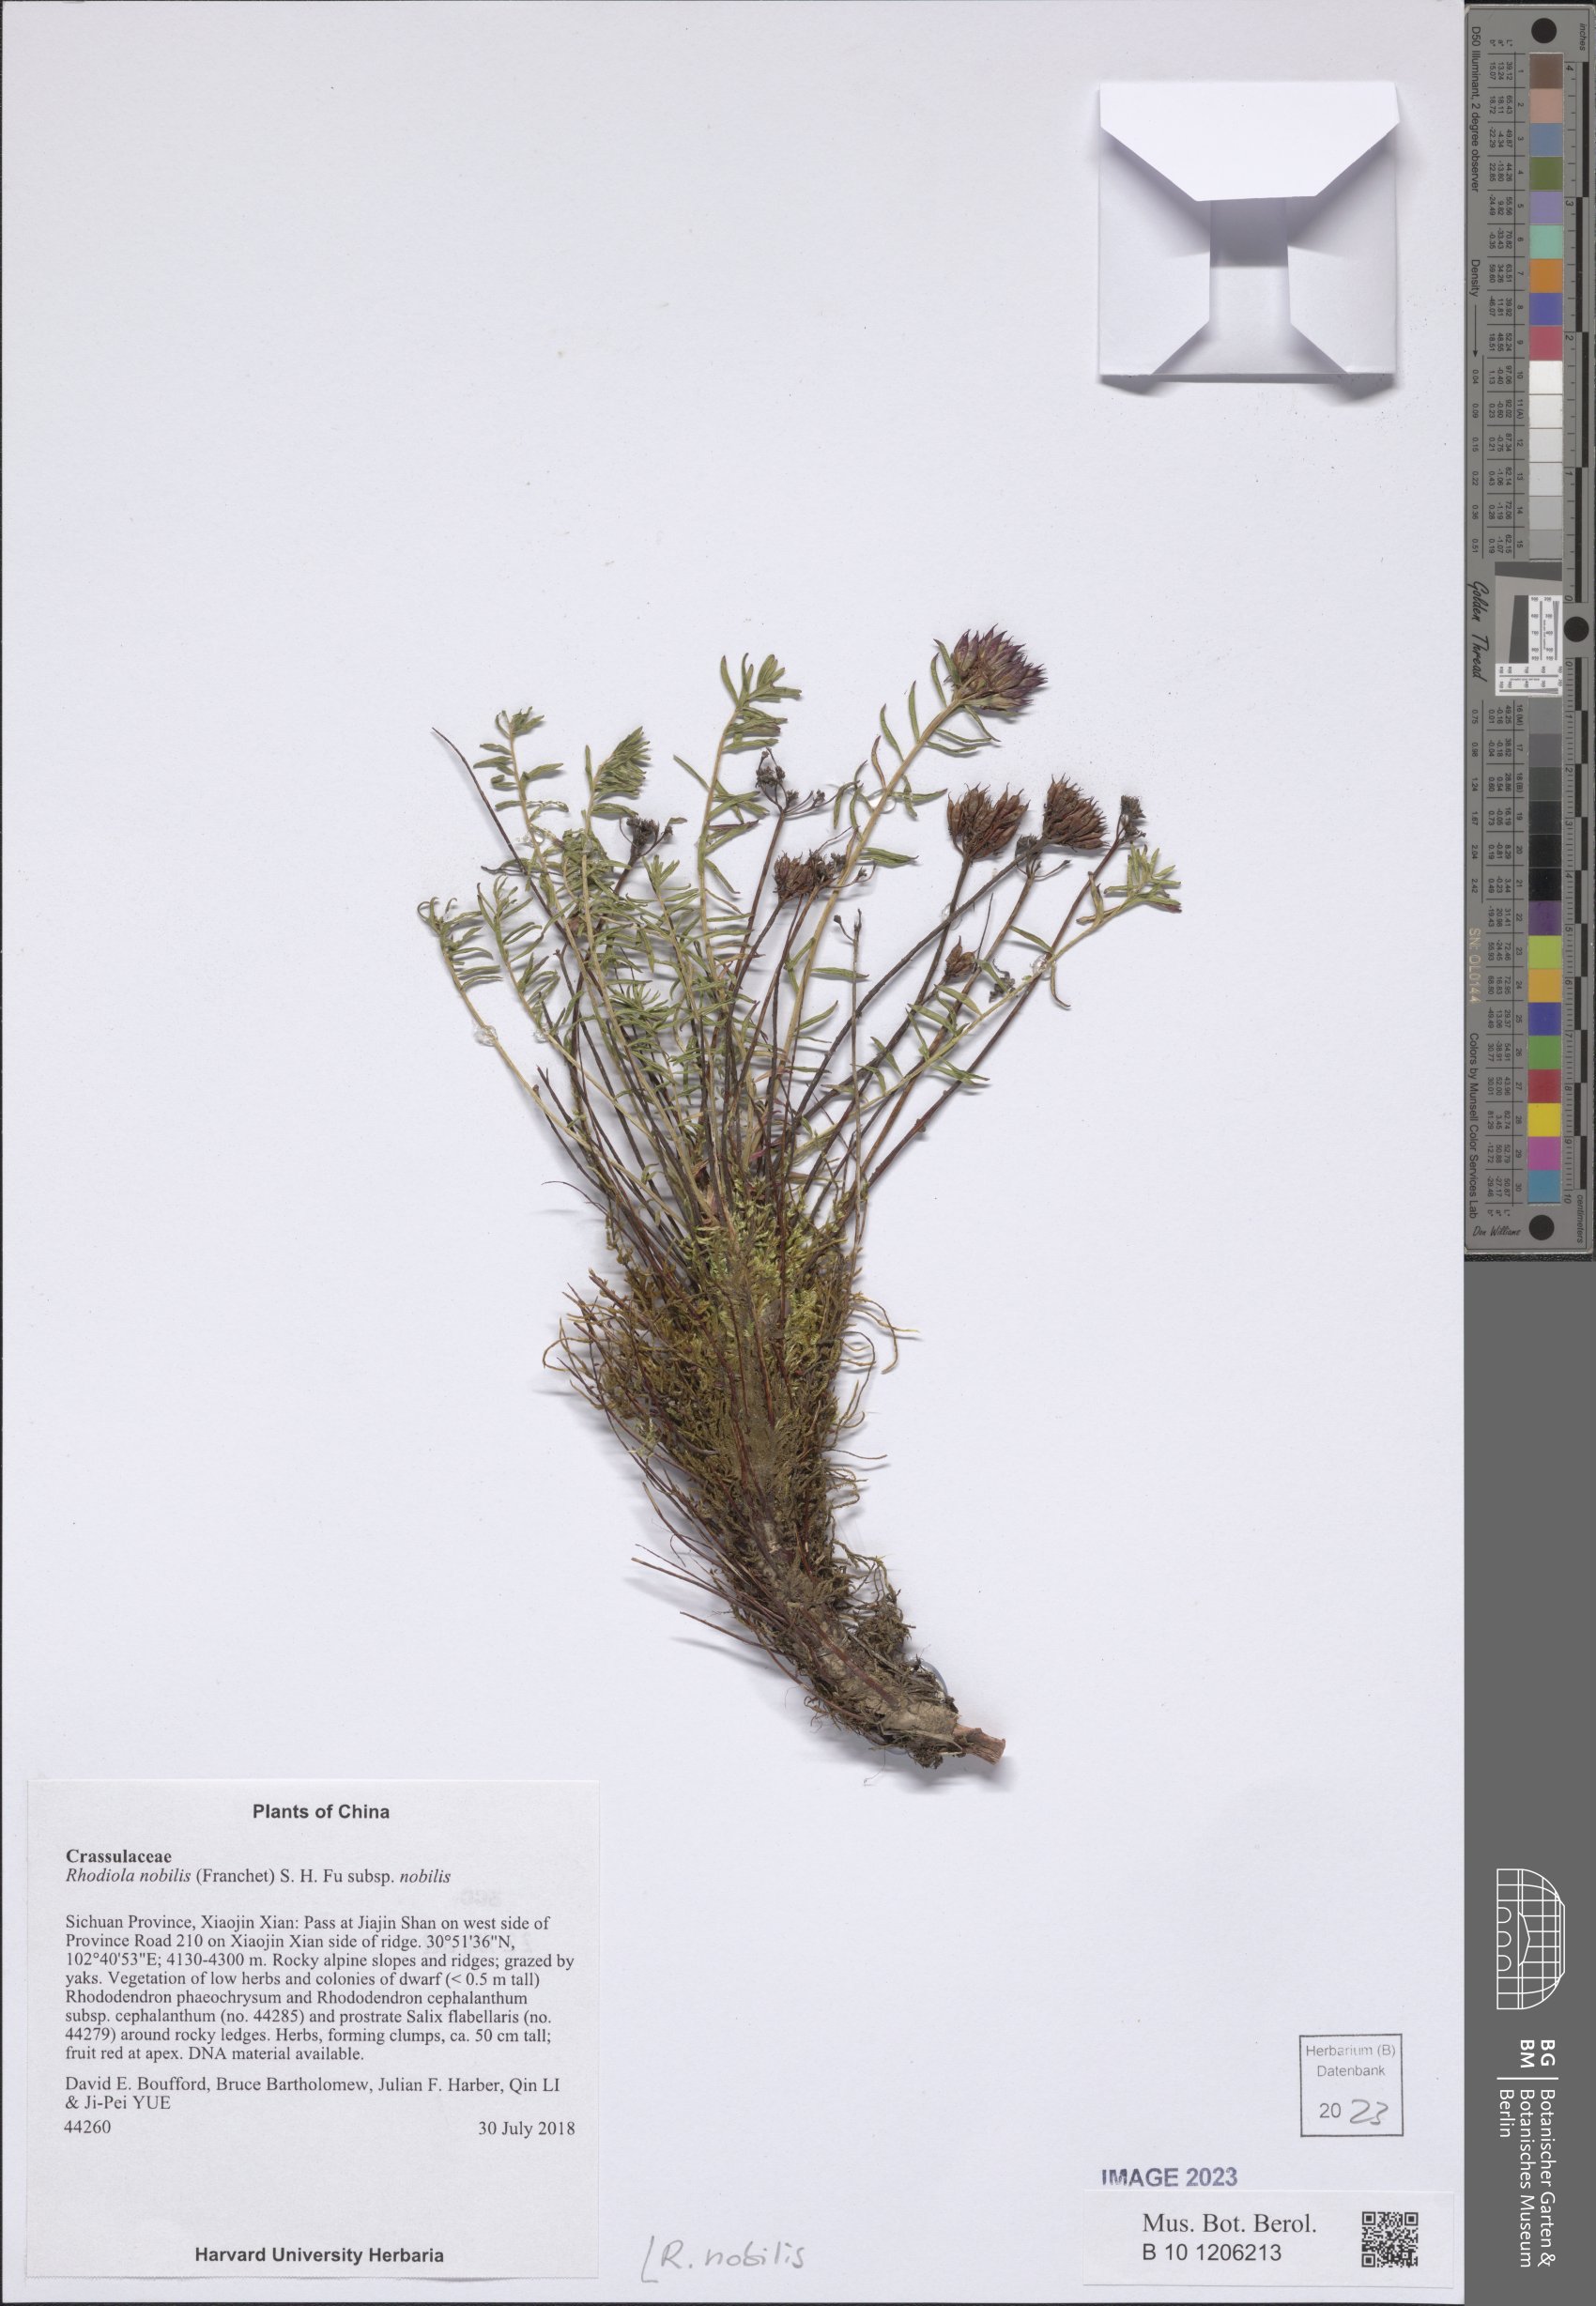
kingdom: Plantae
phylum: Tracheophyta
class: Magnoliopsida
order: Saxifragales
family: Crassulaceae
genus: Rhodiola
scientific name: Rhodiola nobilis
